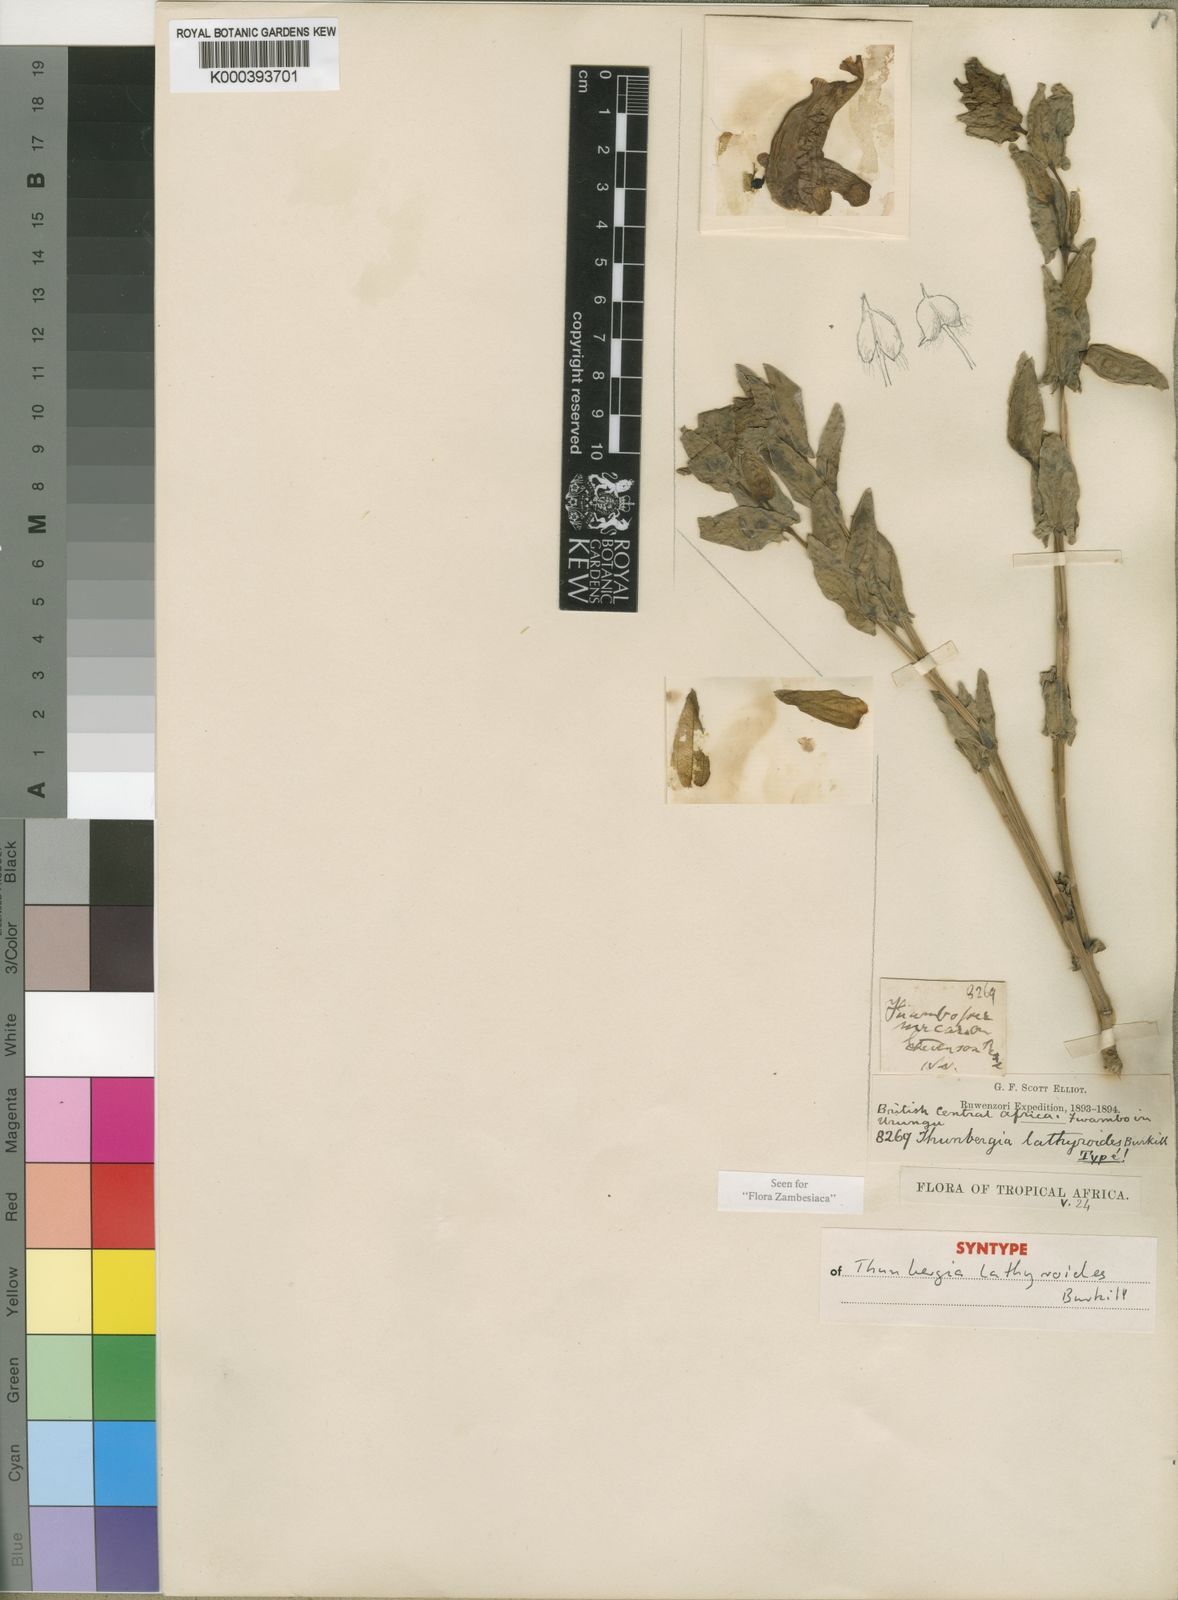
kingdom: Plantae
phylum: Tracheophyta
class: Magnoliopsida
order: Lamiales
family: Acanthaceae
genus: Thunbergia
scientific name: Thunbergia lathyroides
